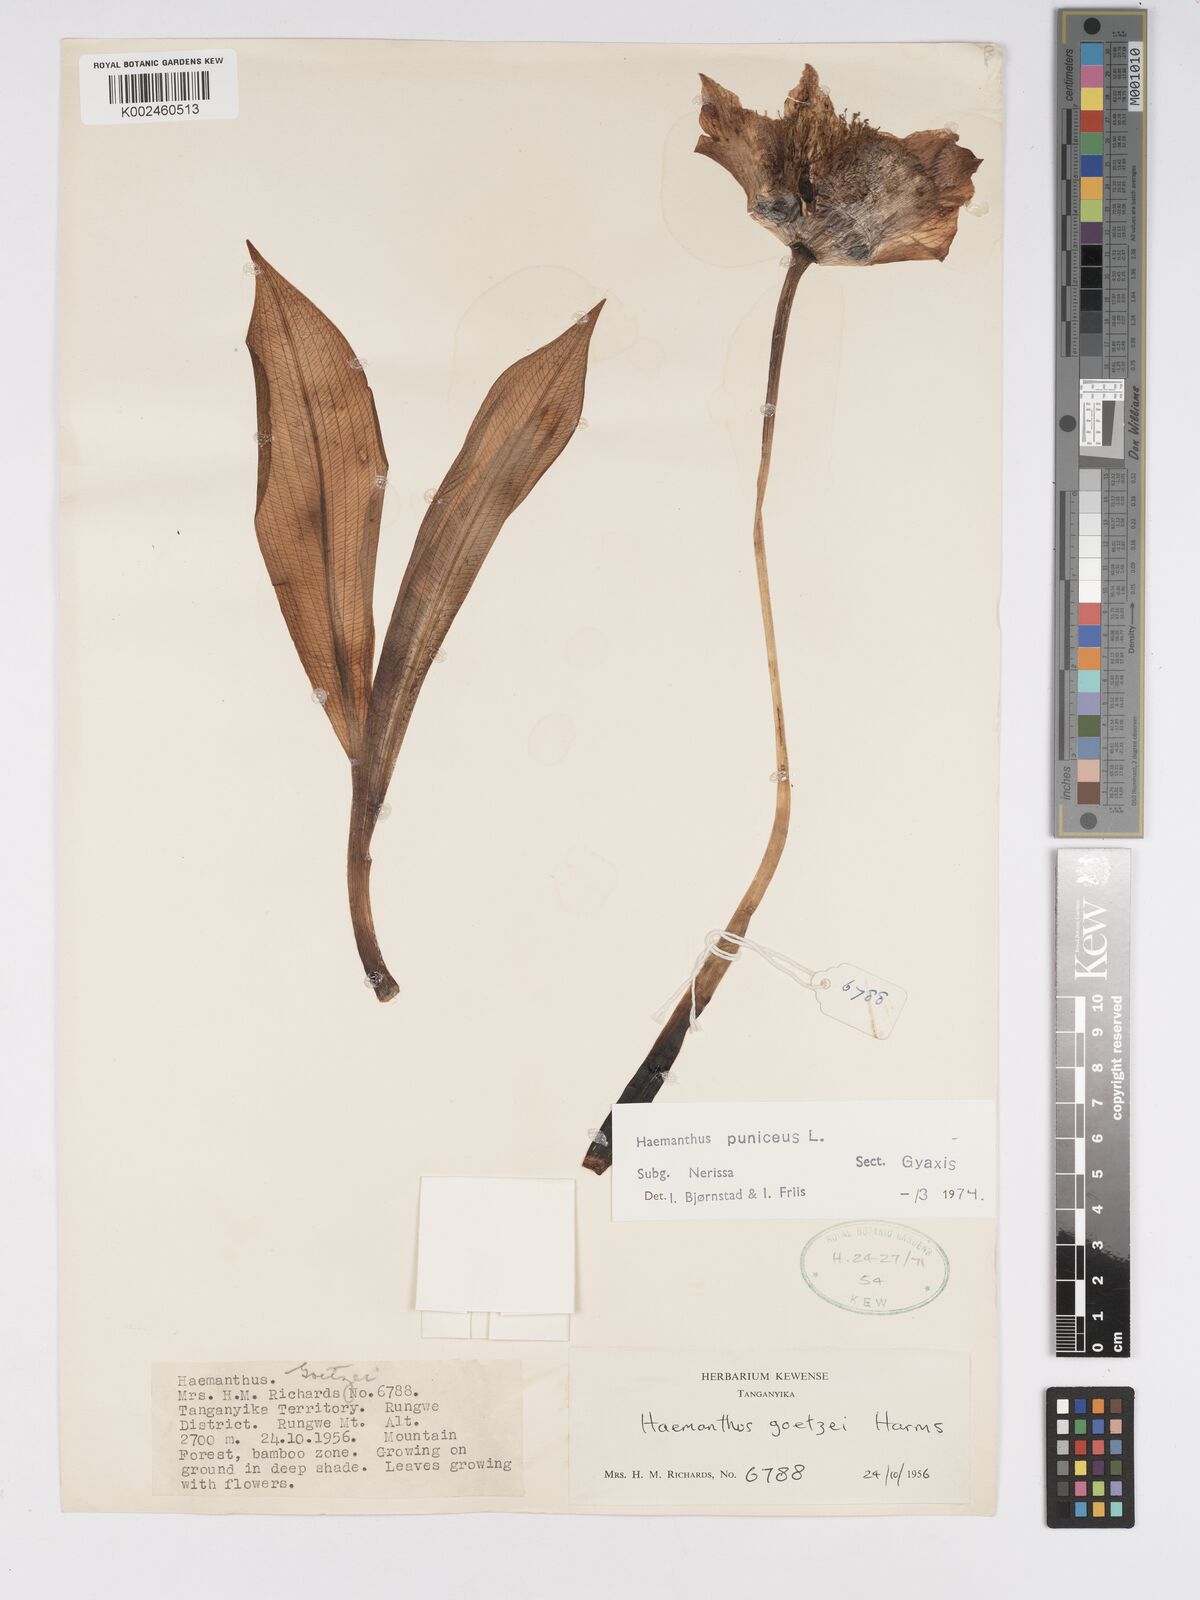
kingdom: Plantae
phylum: Tracheophyta
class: Liliopsida
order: Asparagales
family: Amaryllidaceae
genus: Scadoxus
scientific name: Scadoxus puniceus
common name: Royal-paintbrush
